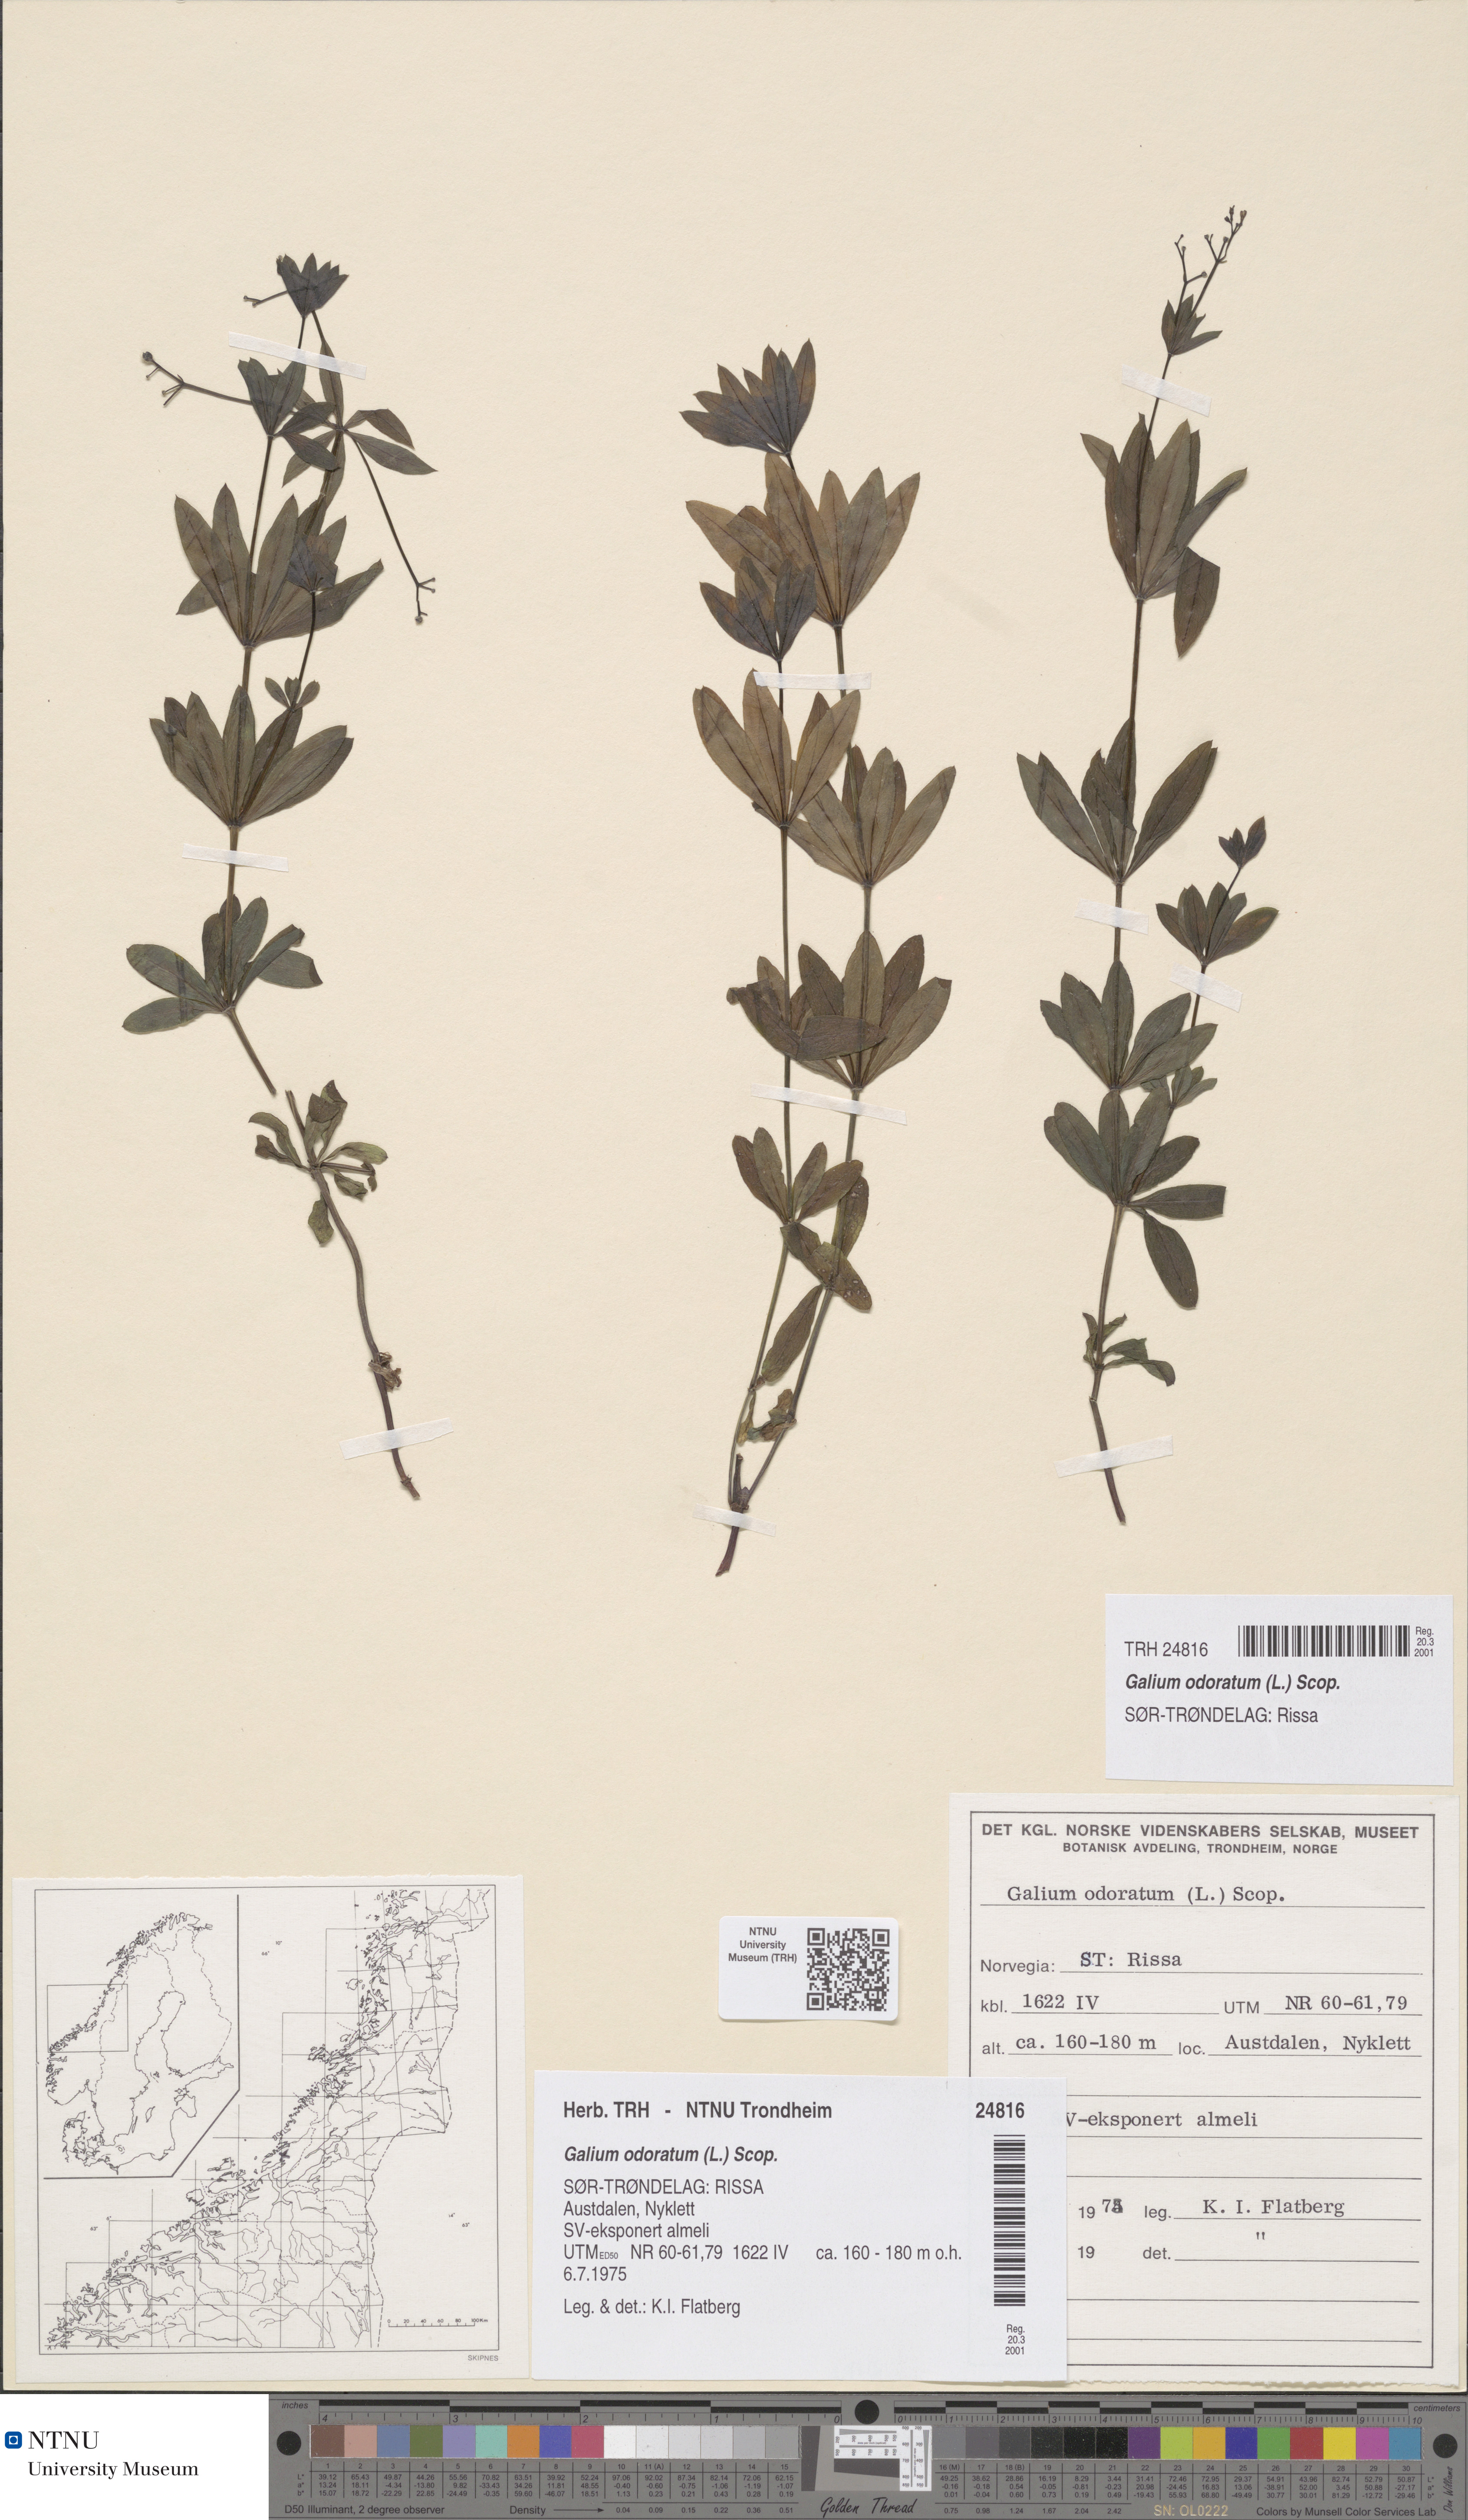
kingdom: Plantae
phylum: Tracheophyta
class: Magnoliopsida
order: Gentianales
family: Rubiaceae
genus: Galium
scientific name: Galium odoratum
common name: Sweet woodruff
